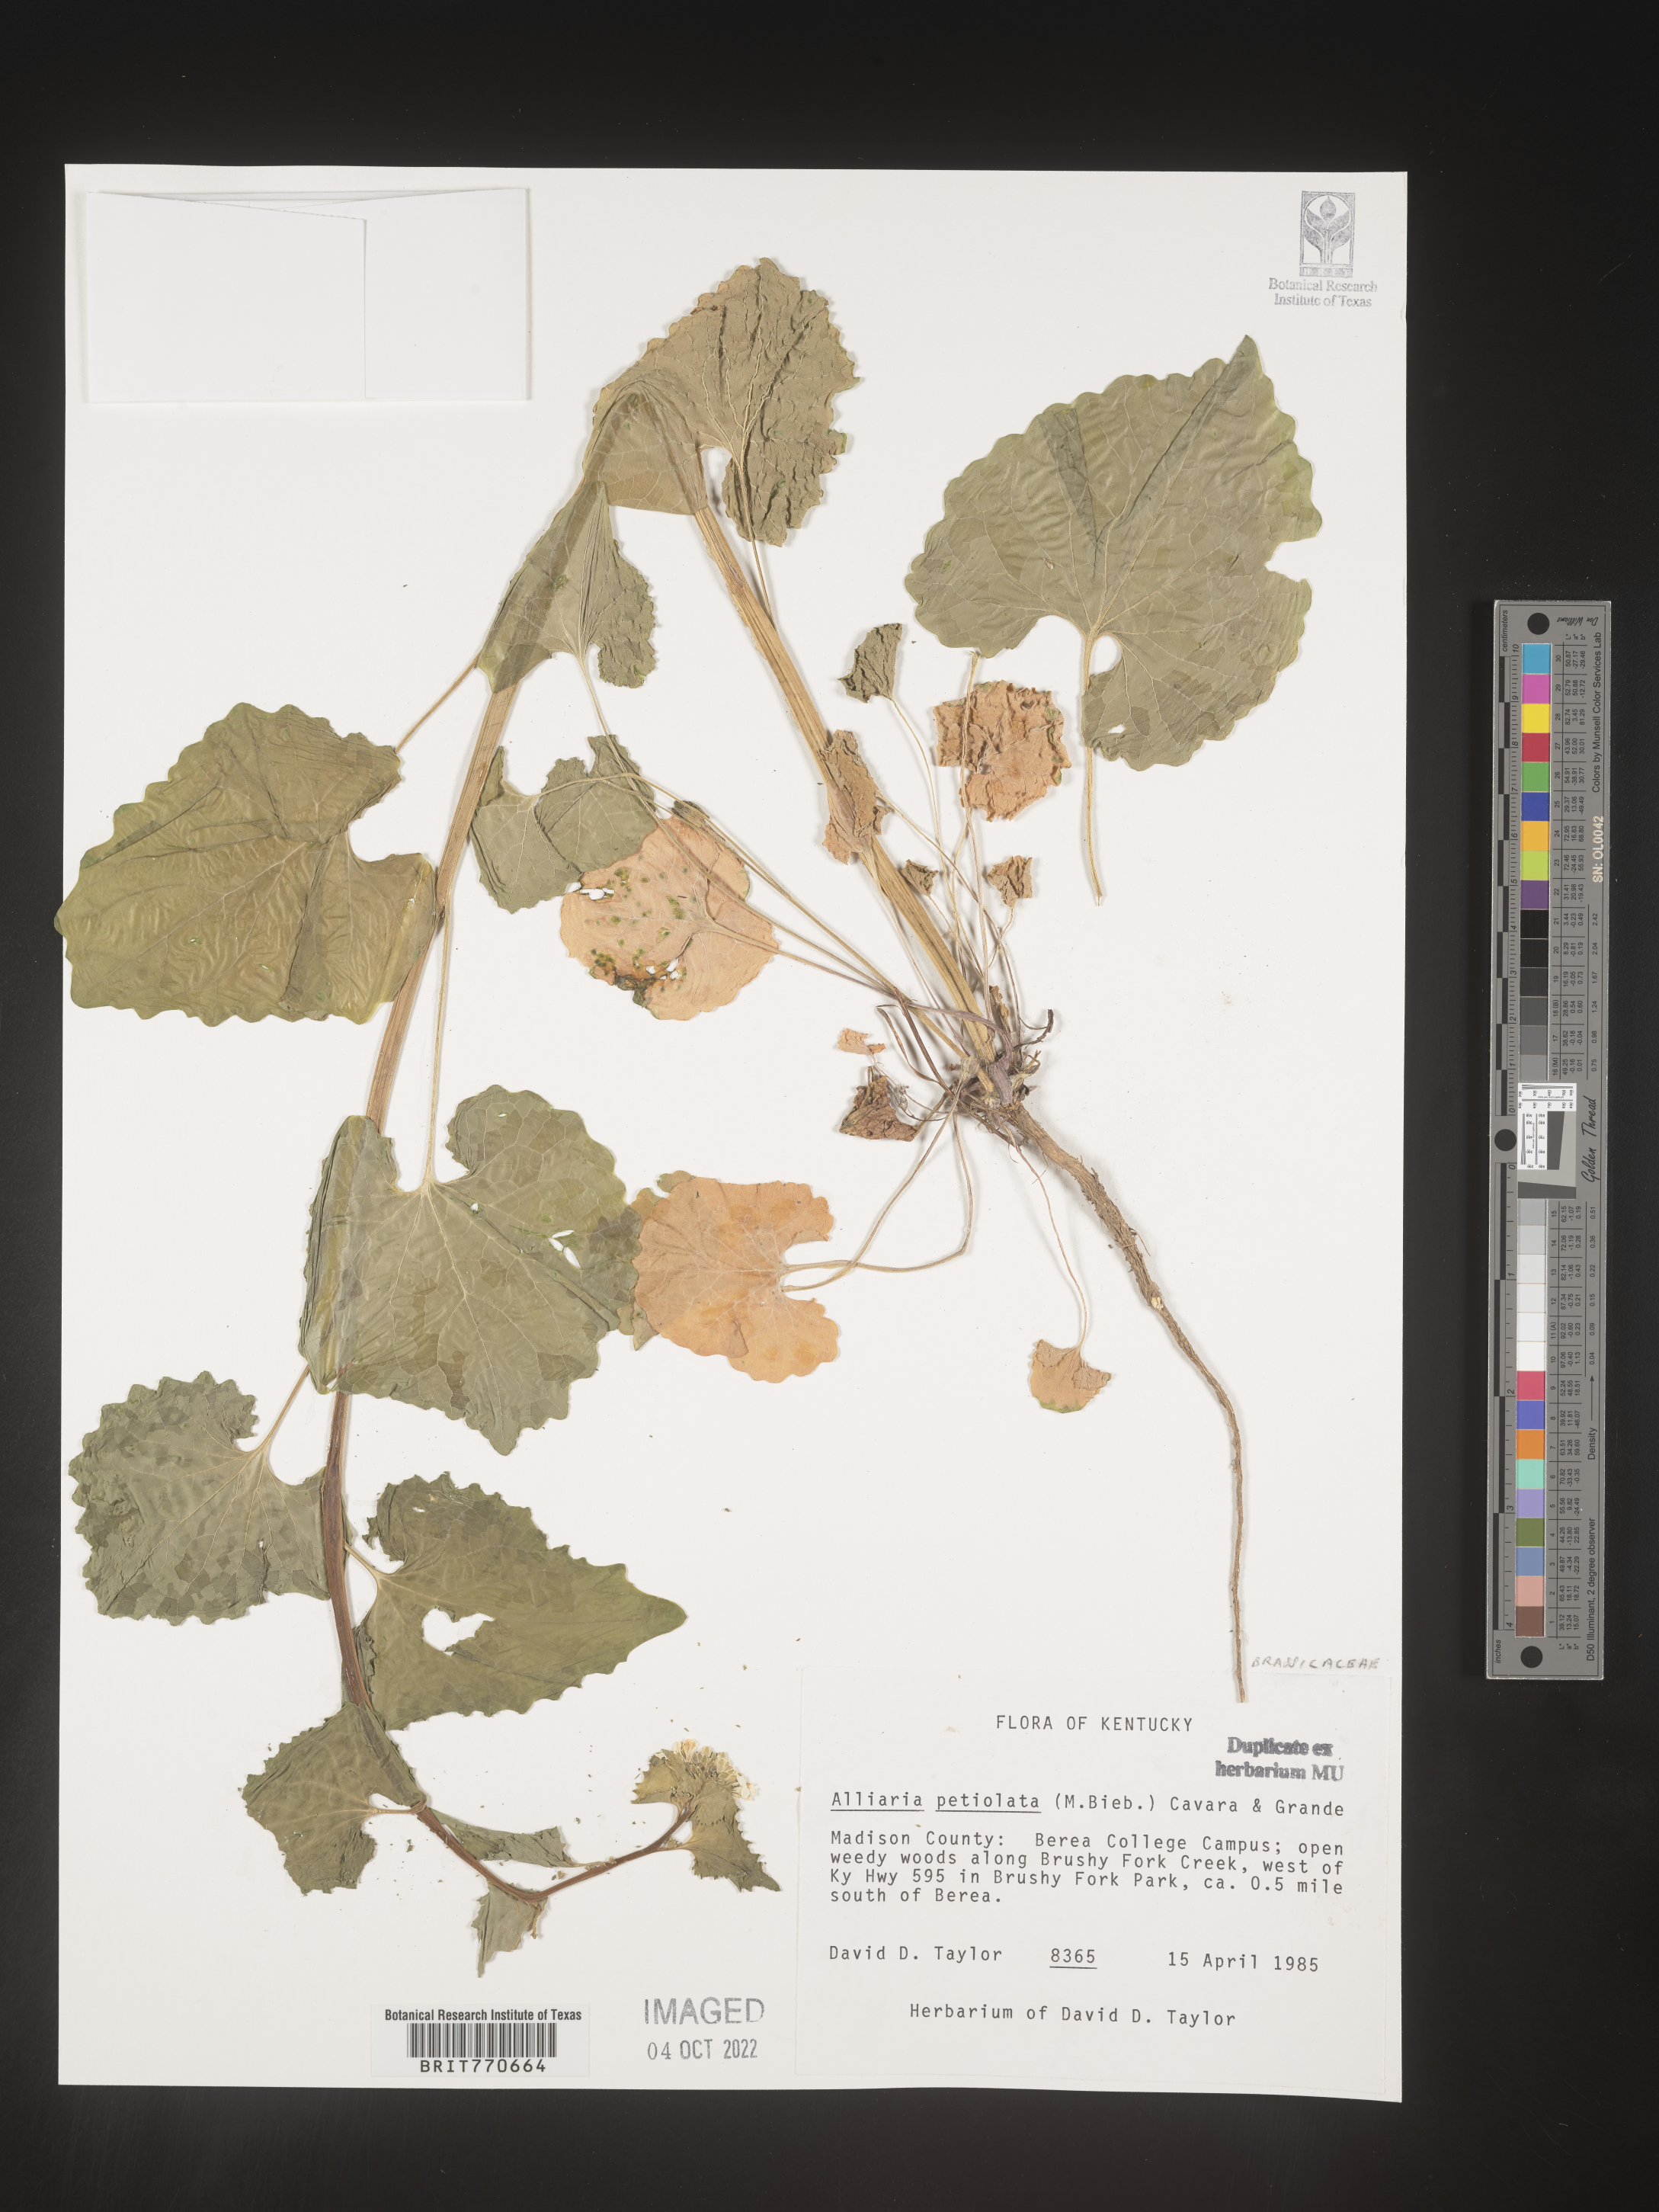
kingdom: Plantae
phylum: Tracheophyta
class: Magnoliopsida
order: Brassicales
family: Brassicaceae
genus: Alliaria
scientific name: Alliaria
